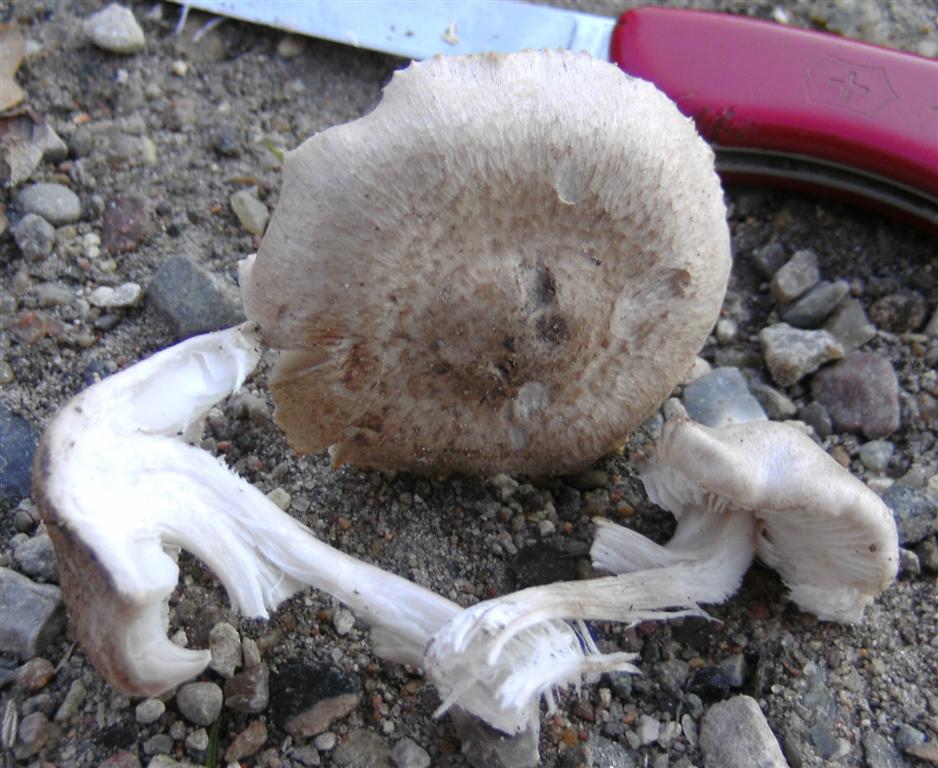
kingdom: Fungi
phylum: Basidiomycota
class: Agaricomycetes
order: Agaricales
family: Tricholomataceae
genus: Tricholoma
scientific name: Tricholoma scalpturatum
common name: gulplettet ridderhat
